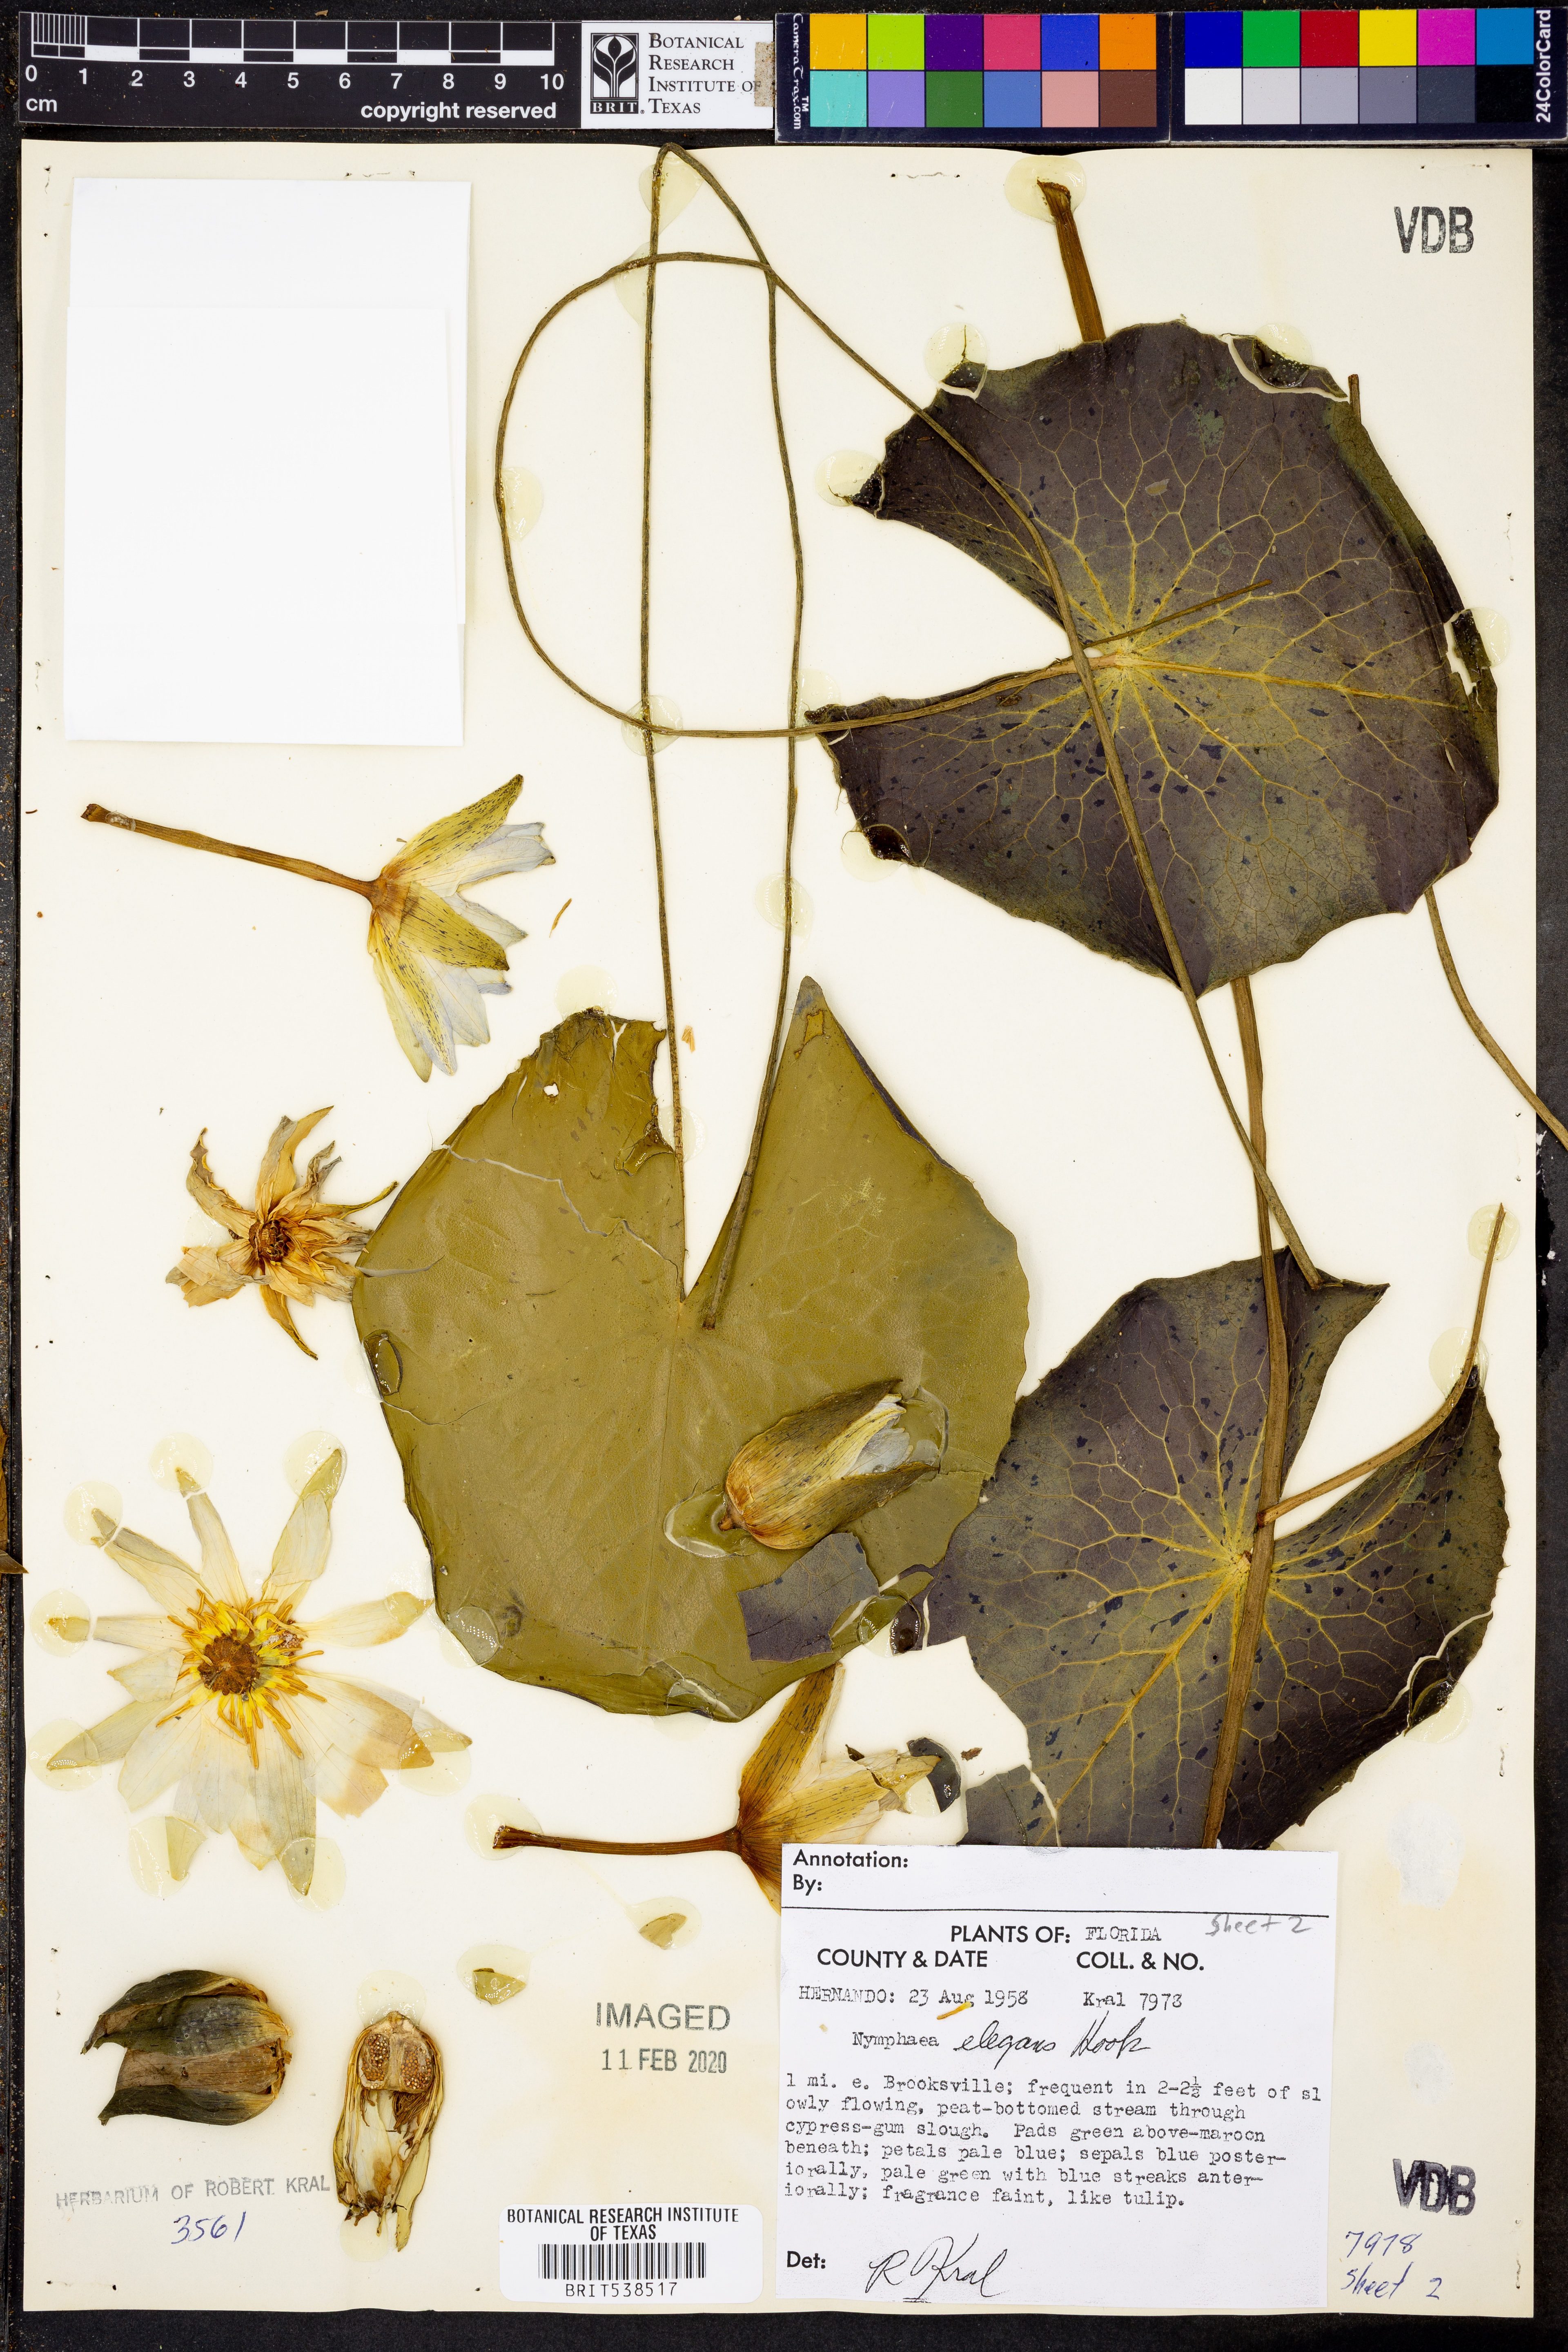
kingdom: Plantae
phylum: Tracheophyta
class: Magnoliopsida
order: Nymphaeales
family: Nymphaeaceae
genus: Nymphaea
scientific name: Nymphaea elegans
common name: Blue water-lily
